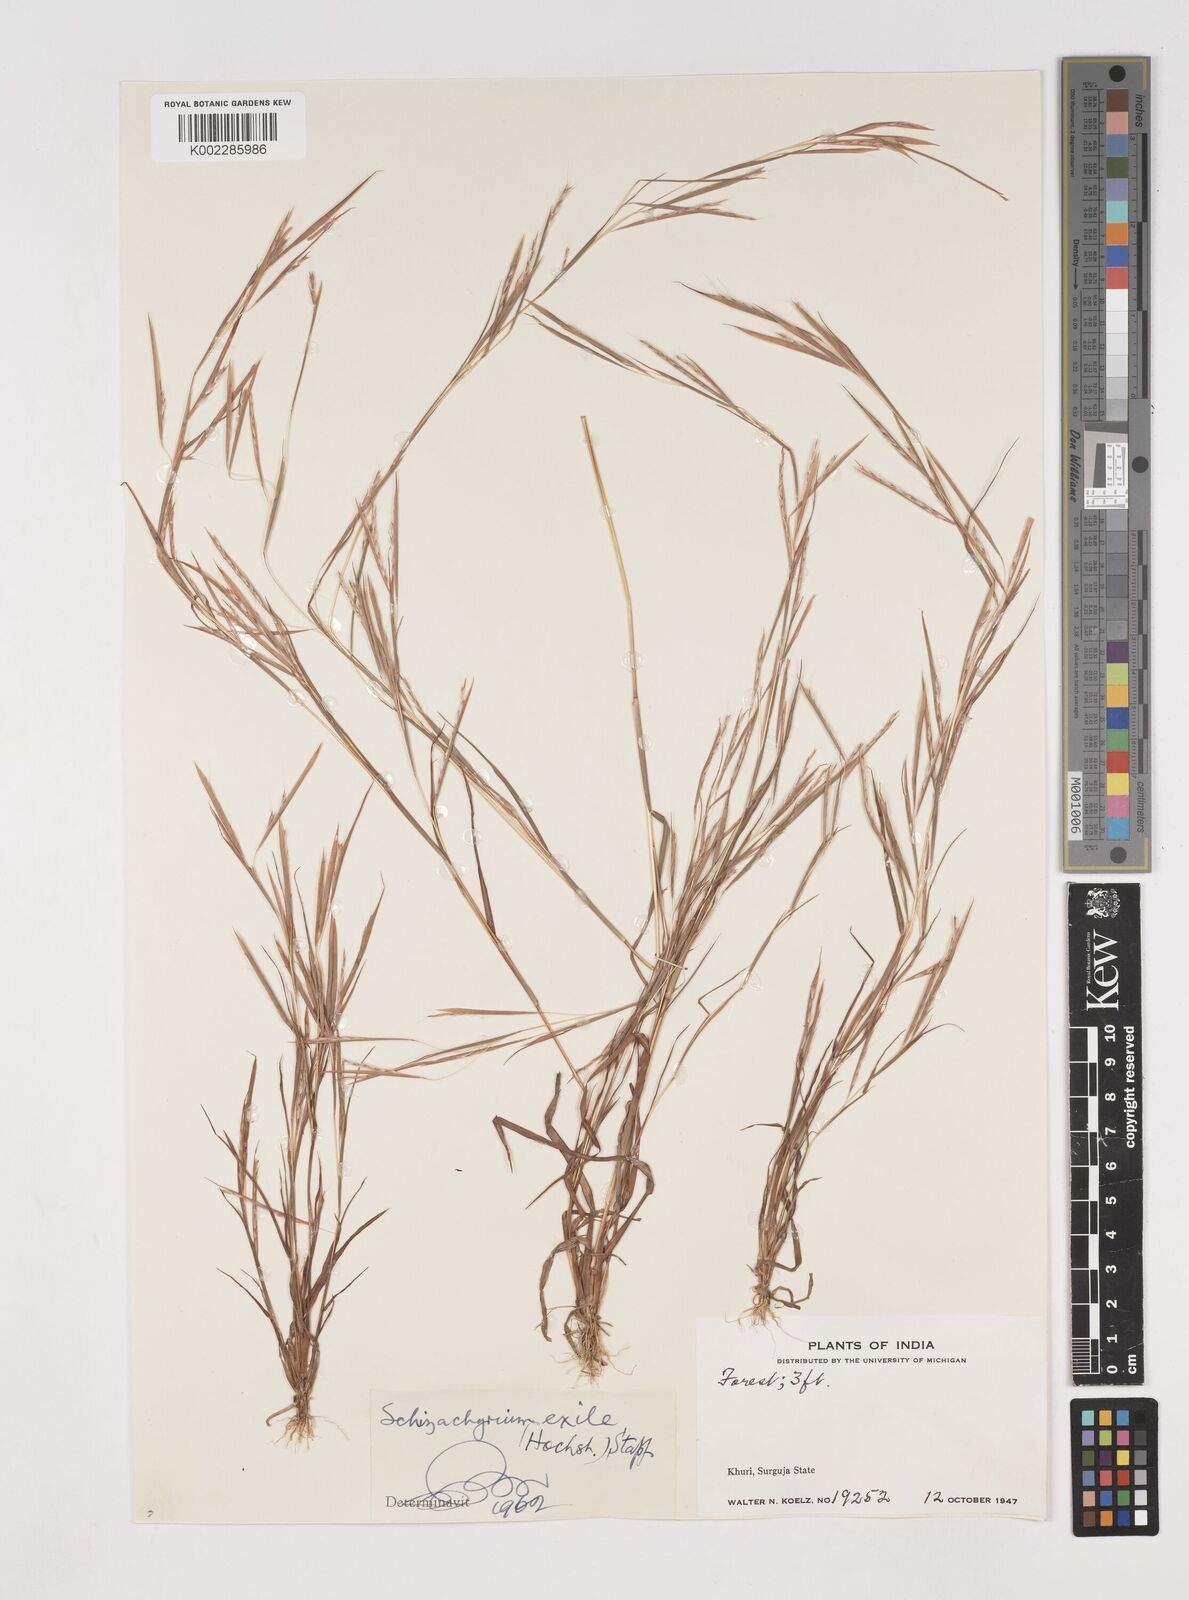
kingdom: Plantae
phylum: Tracheophyta
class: Liliopsida
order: Poales
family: Poaceae
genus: Schizachyrium
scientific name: Schizachyrium exile
